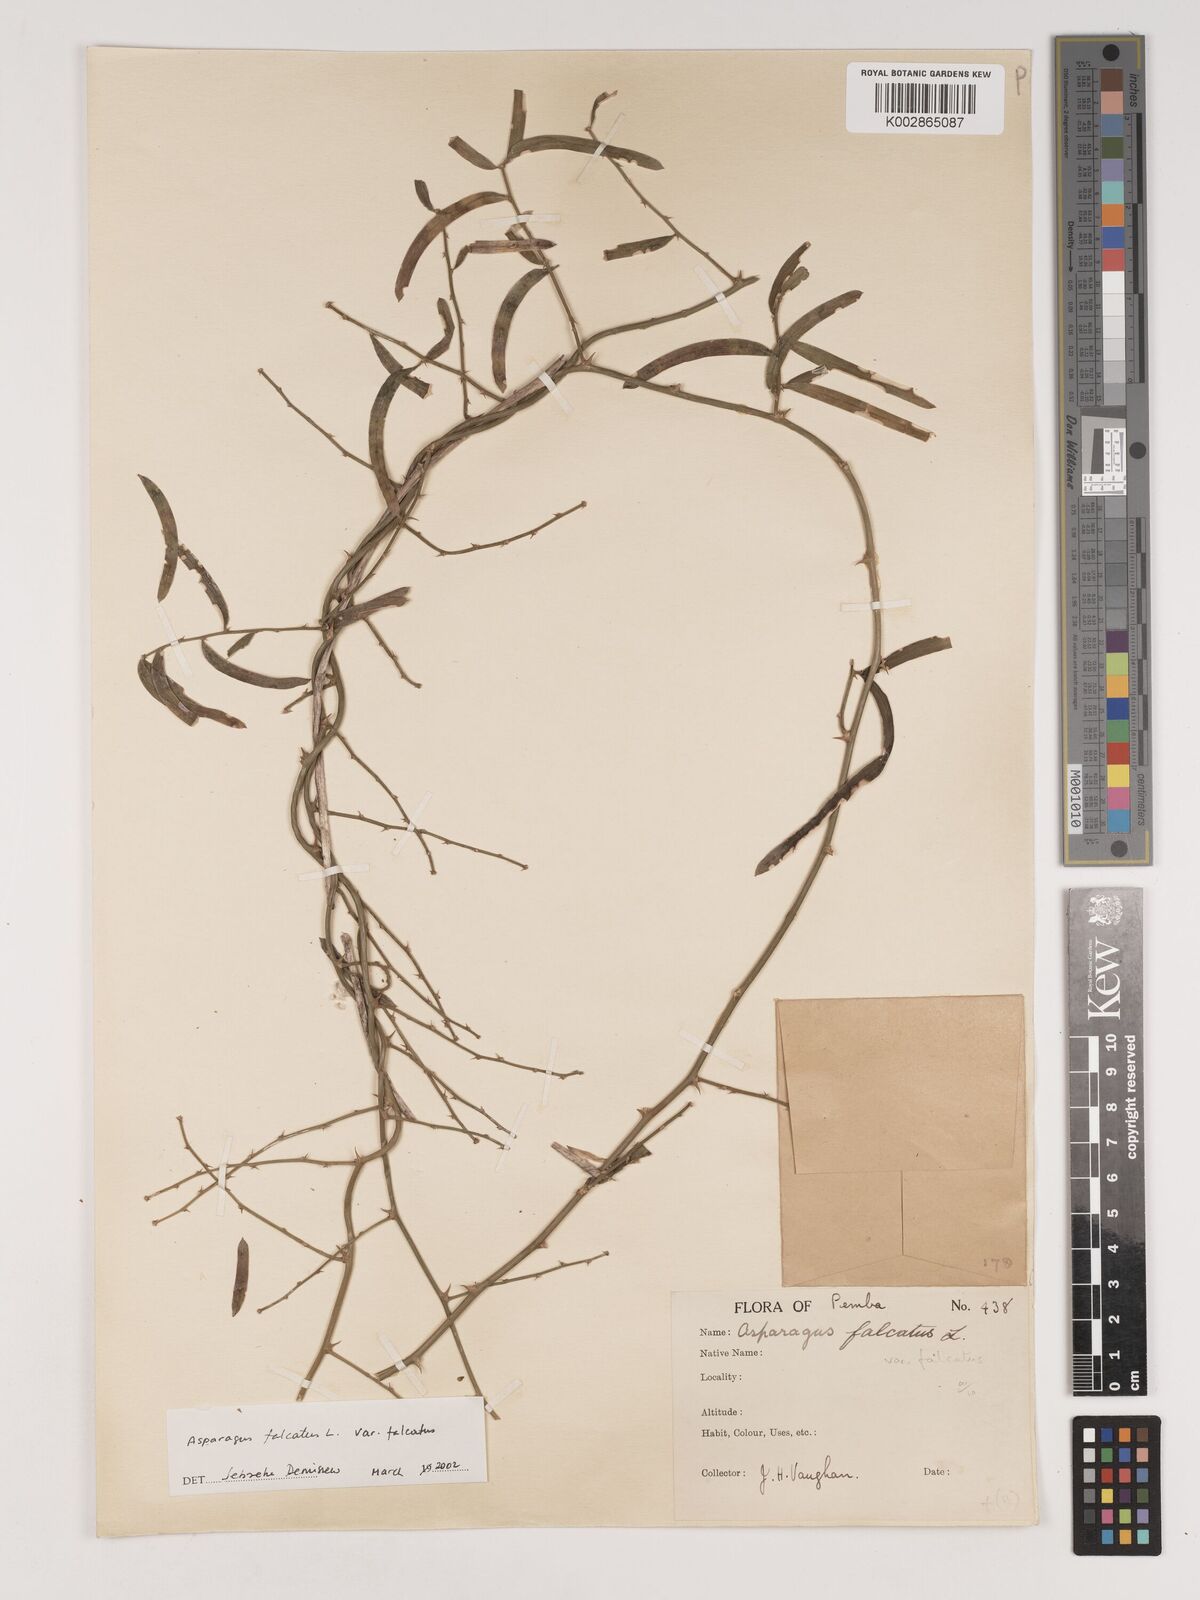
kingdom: Plantae
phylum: Tracheophyta
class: Liliopsida
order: Asparagales
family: Asparagaceae
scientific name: Asparagaceae
